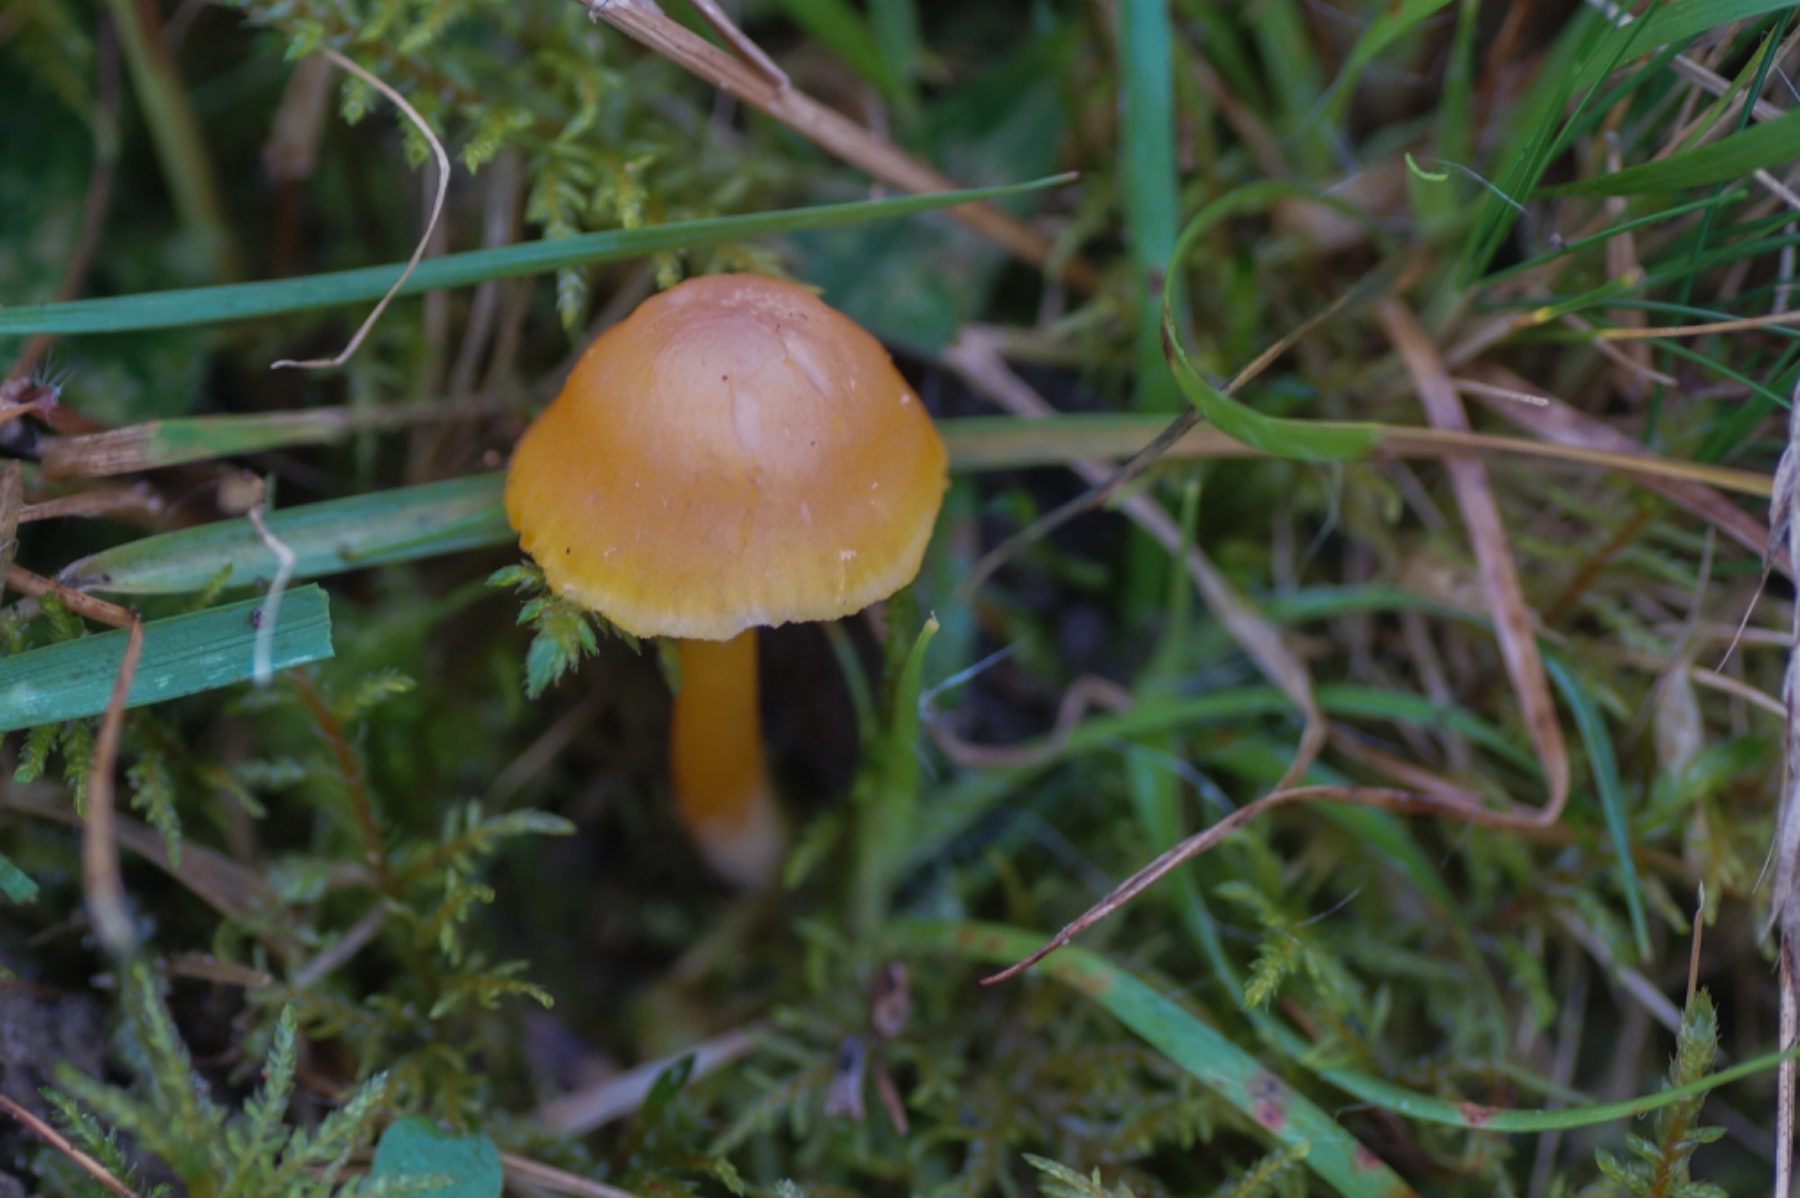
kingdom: Fungi
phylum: Basidiomycota
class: Agaricomycetes
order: Agaricales
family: Hygrophoraceae
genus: Gliophorus
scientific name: Gliophorus laetus
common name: brusk-vokshat
